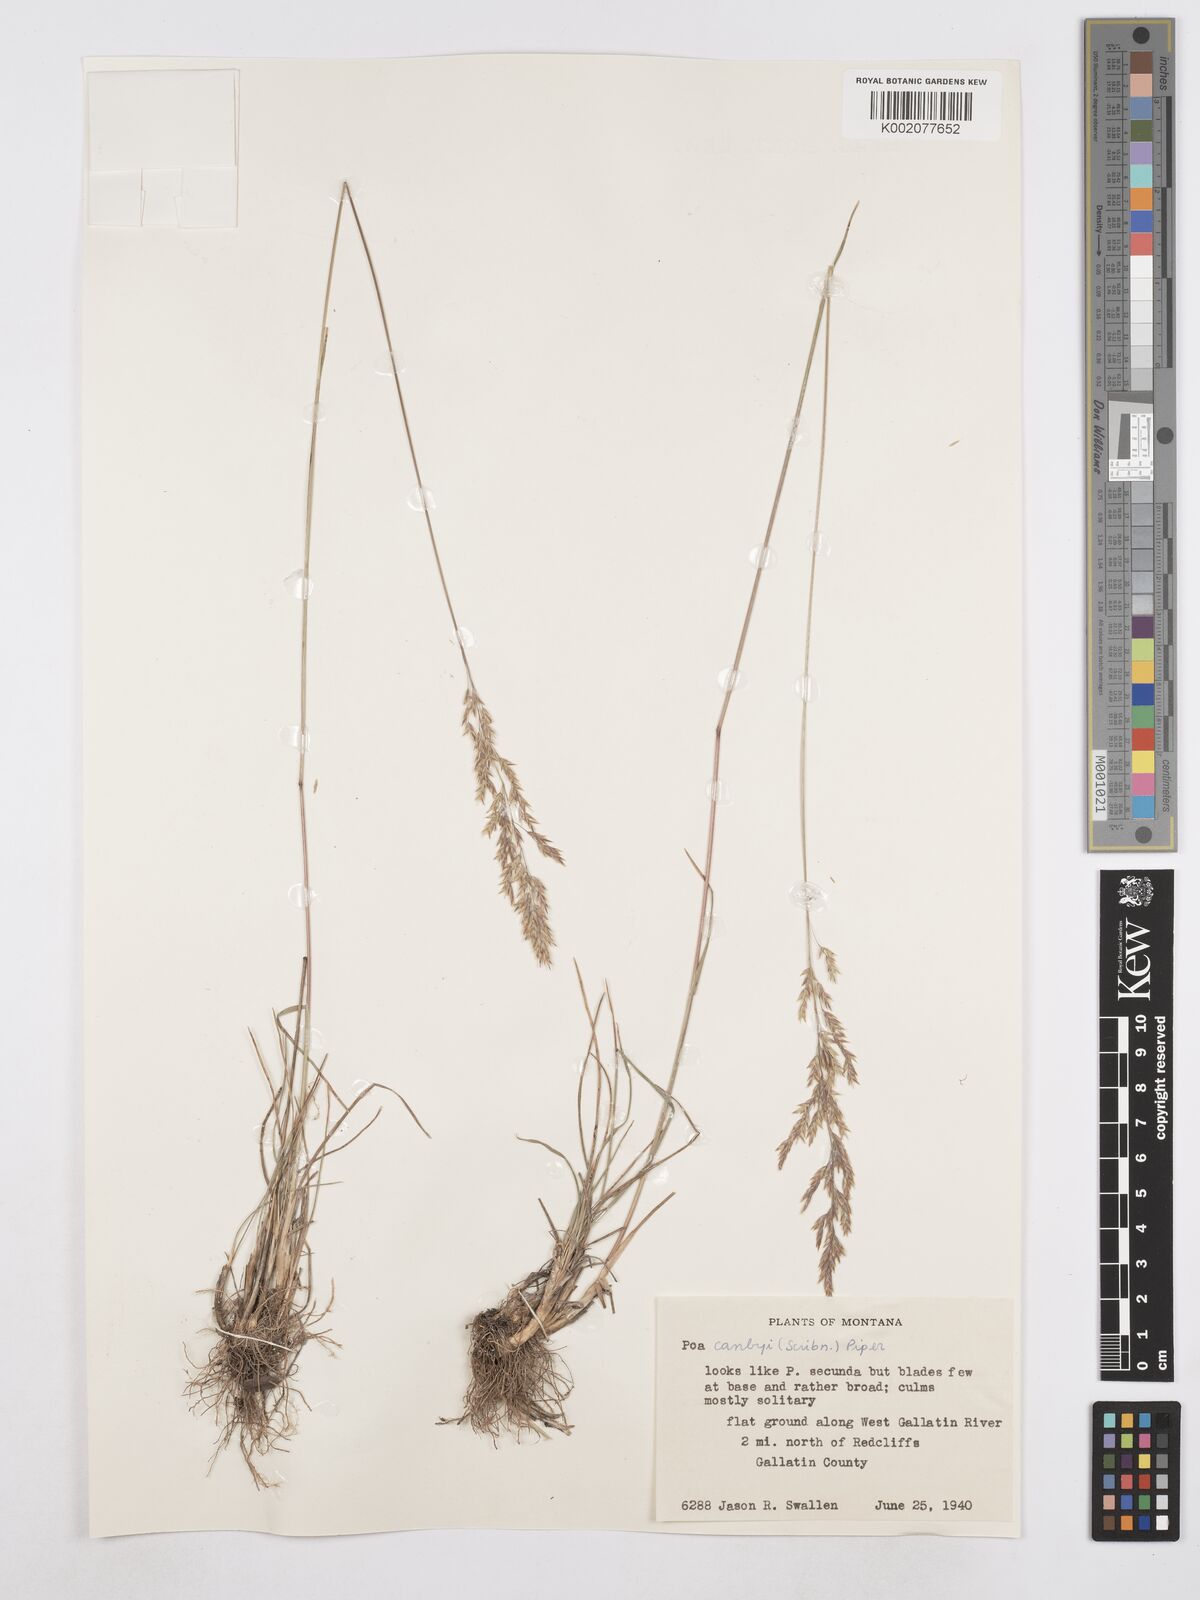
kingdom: Plantae
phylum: Tracheophyta
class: Liliopsida
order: Poales
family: Poaceae
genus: Poa
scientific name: Poa secunda
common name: Sandberg bluegrass
